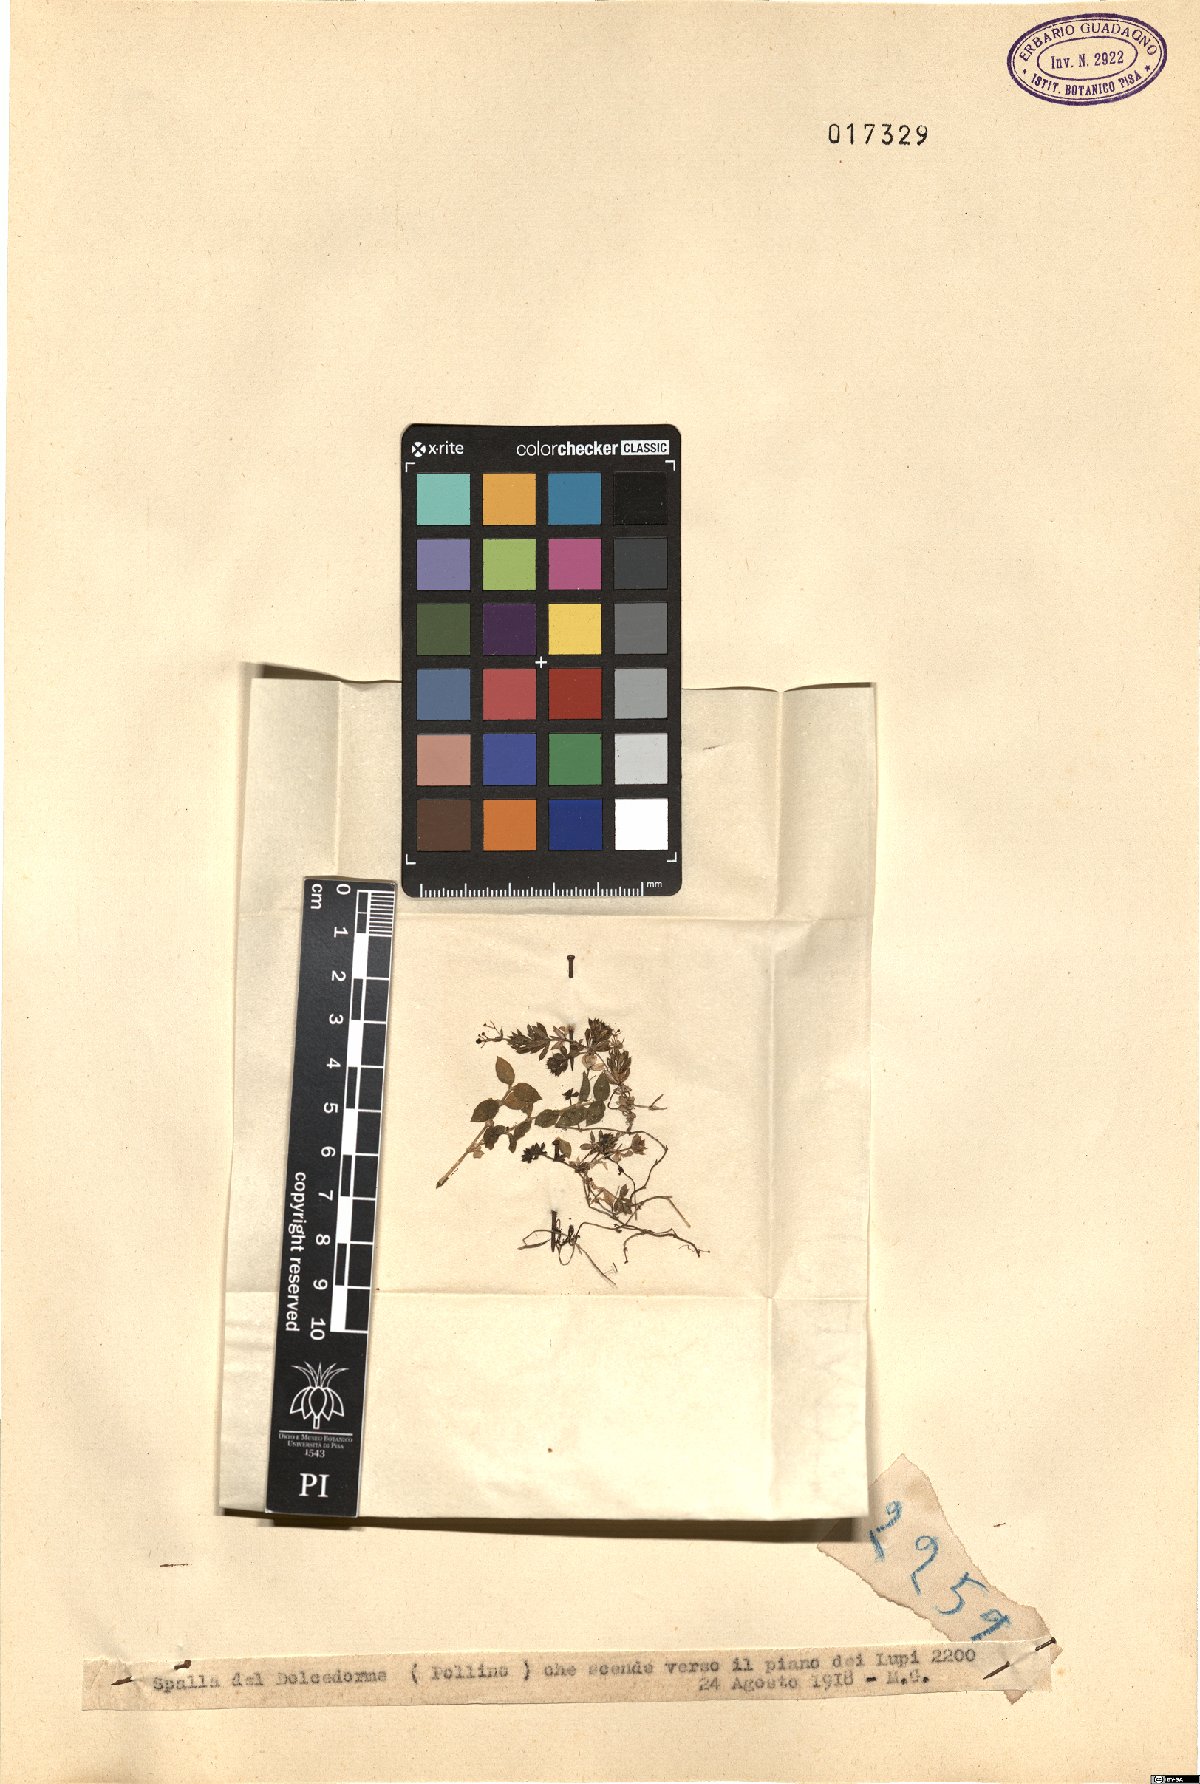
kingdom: Plantae
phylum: Tracheophyta
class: Magnoliopsida
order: Gentianales
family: Rubiaceae
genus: Galium
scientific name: Galium
